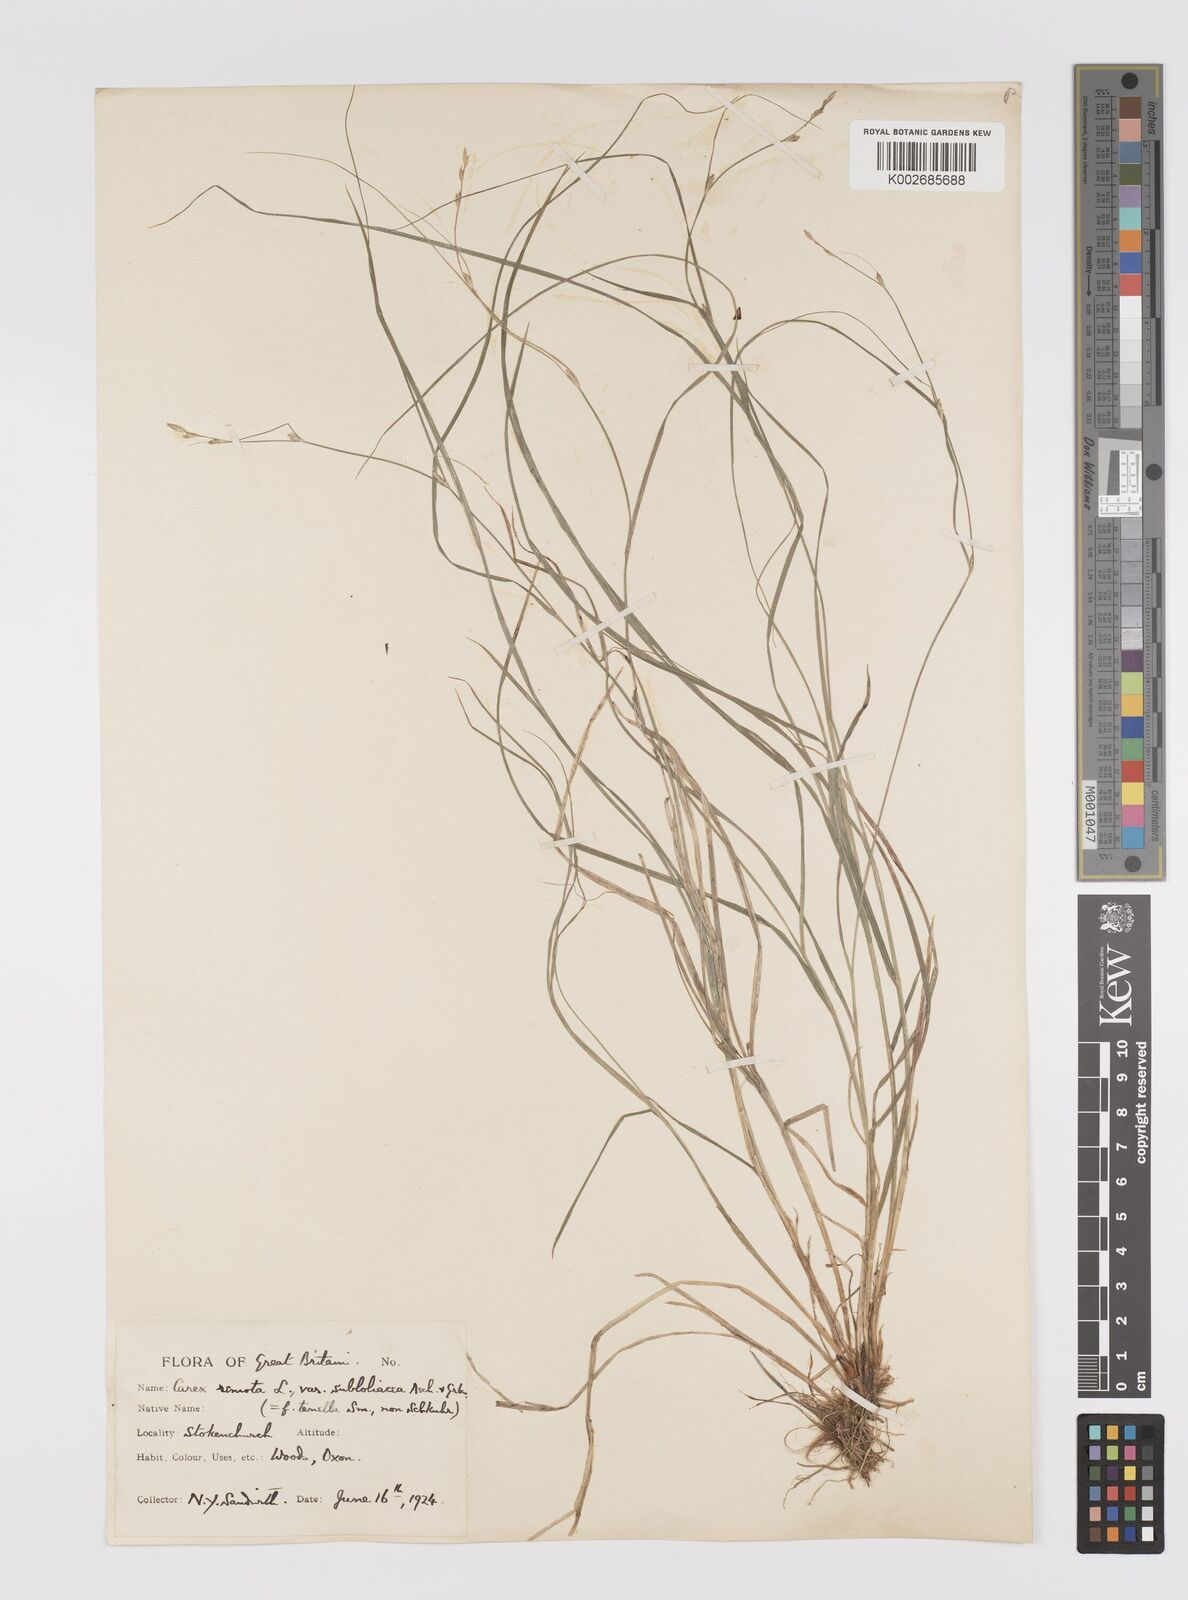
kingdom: Plantae
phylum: Tracheophyta
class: Liliopsida
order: Poales
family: Cyperaceae
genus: Carex
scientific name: Carex remota
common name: Remote sedge
